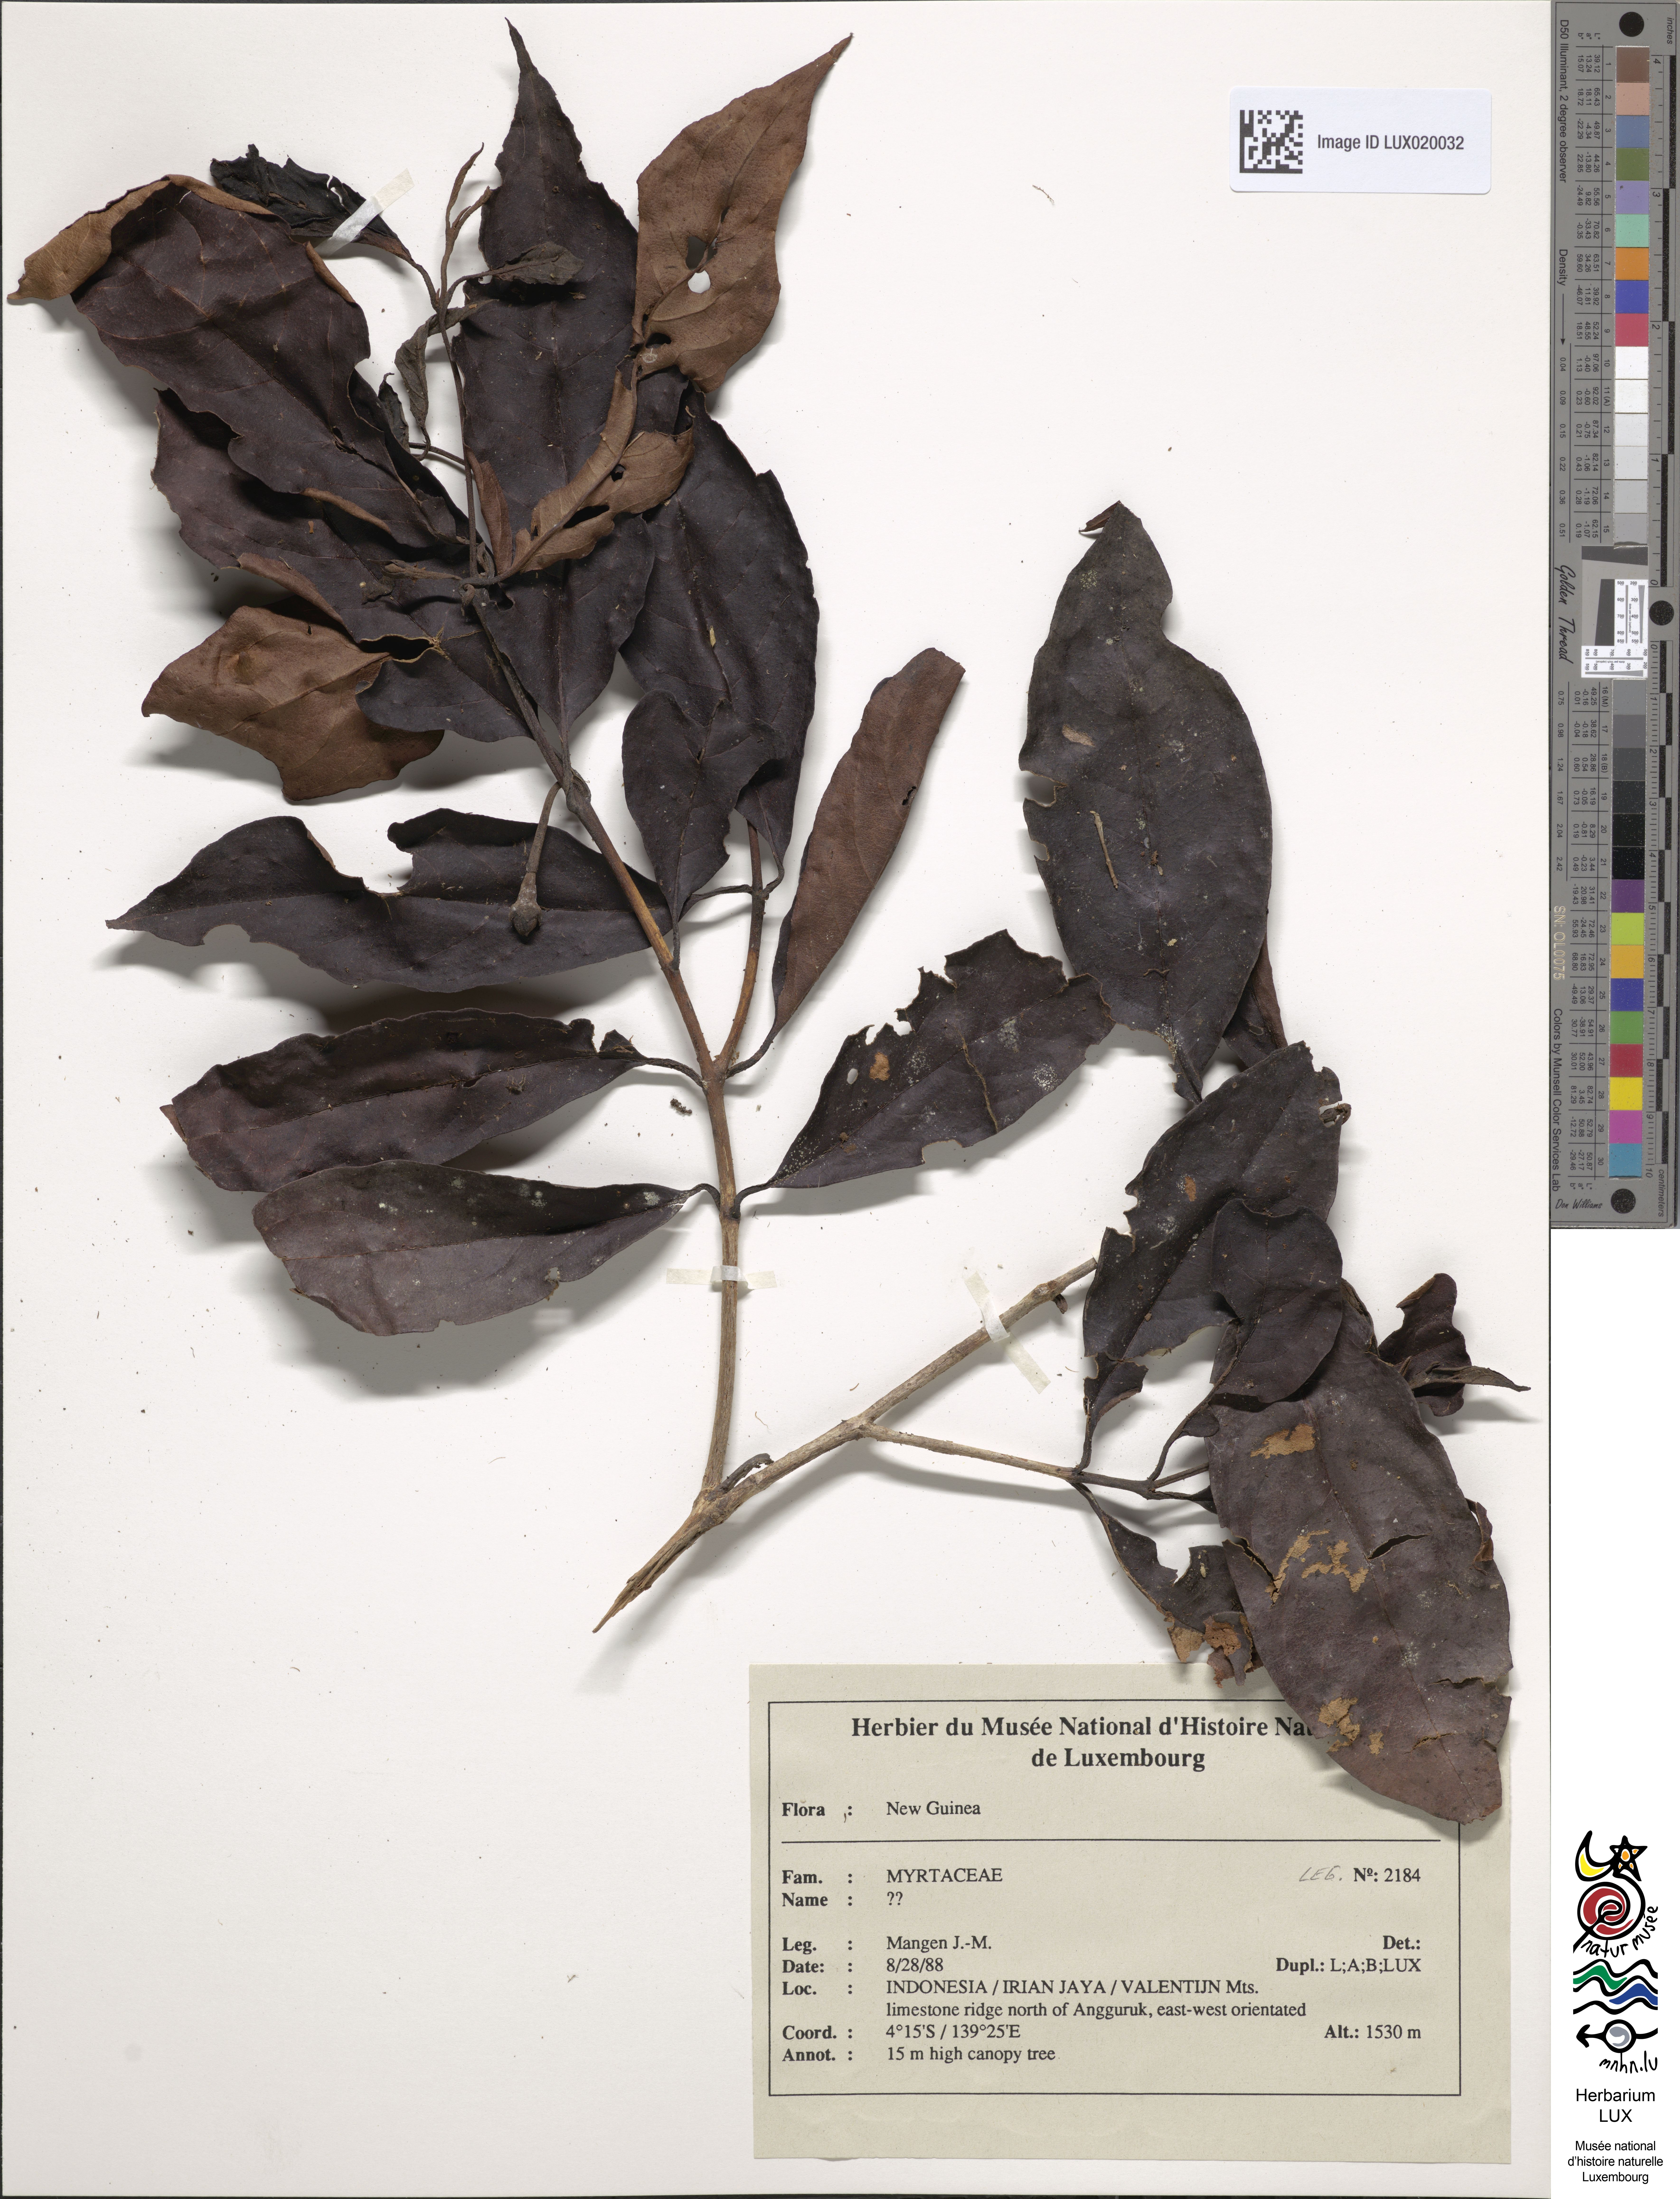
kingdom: Plantae
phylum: Tracheophyta
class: Magnoliopsida
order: Myrtales
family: Myrtaceae
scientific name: Myrtaceae
